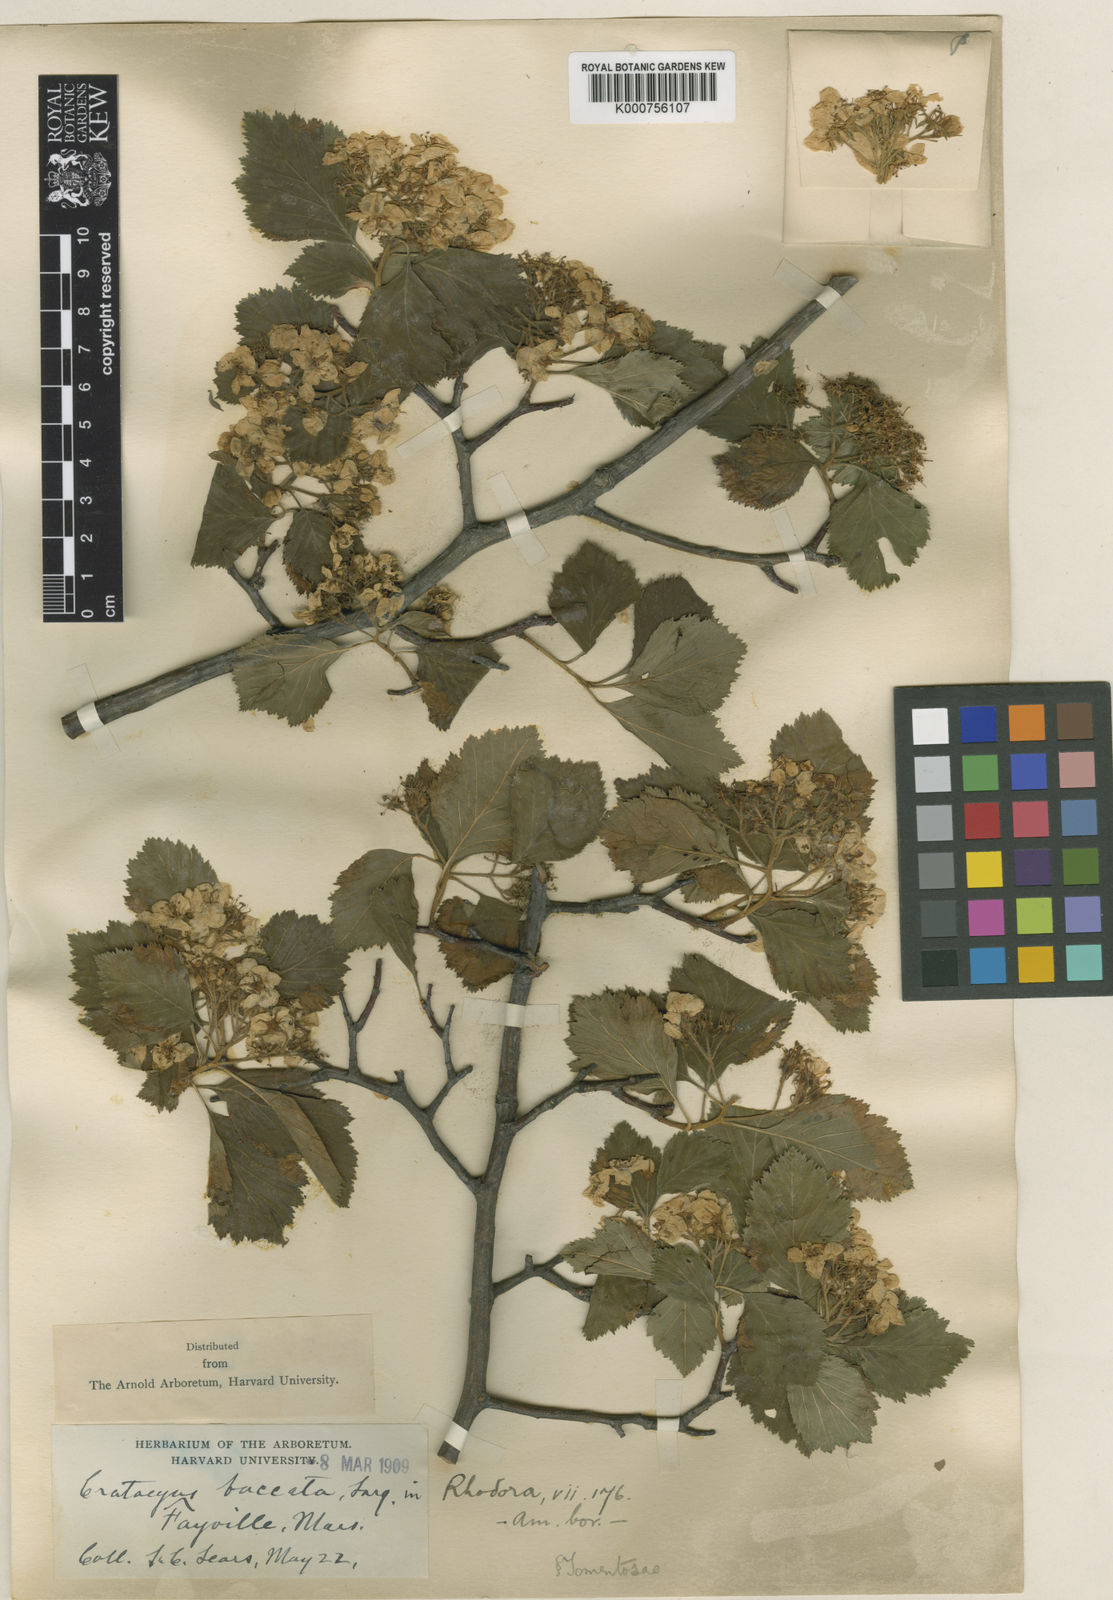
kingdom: Plantae
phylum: Tracheophyta
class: Magnoliopsida
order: Rosales
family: Rosaceae
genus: Crataegus
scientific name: Crataegus baccata
